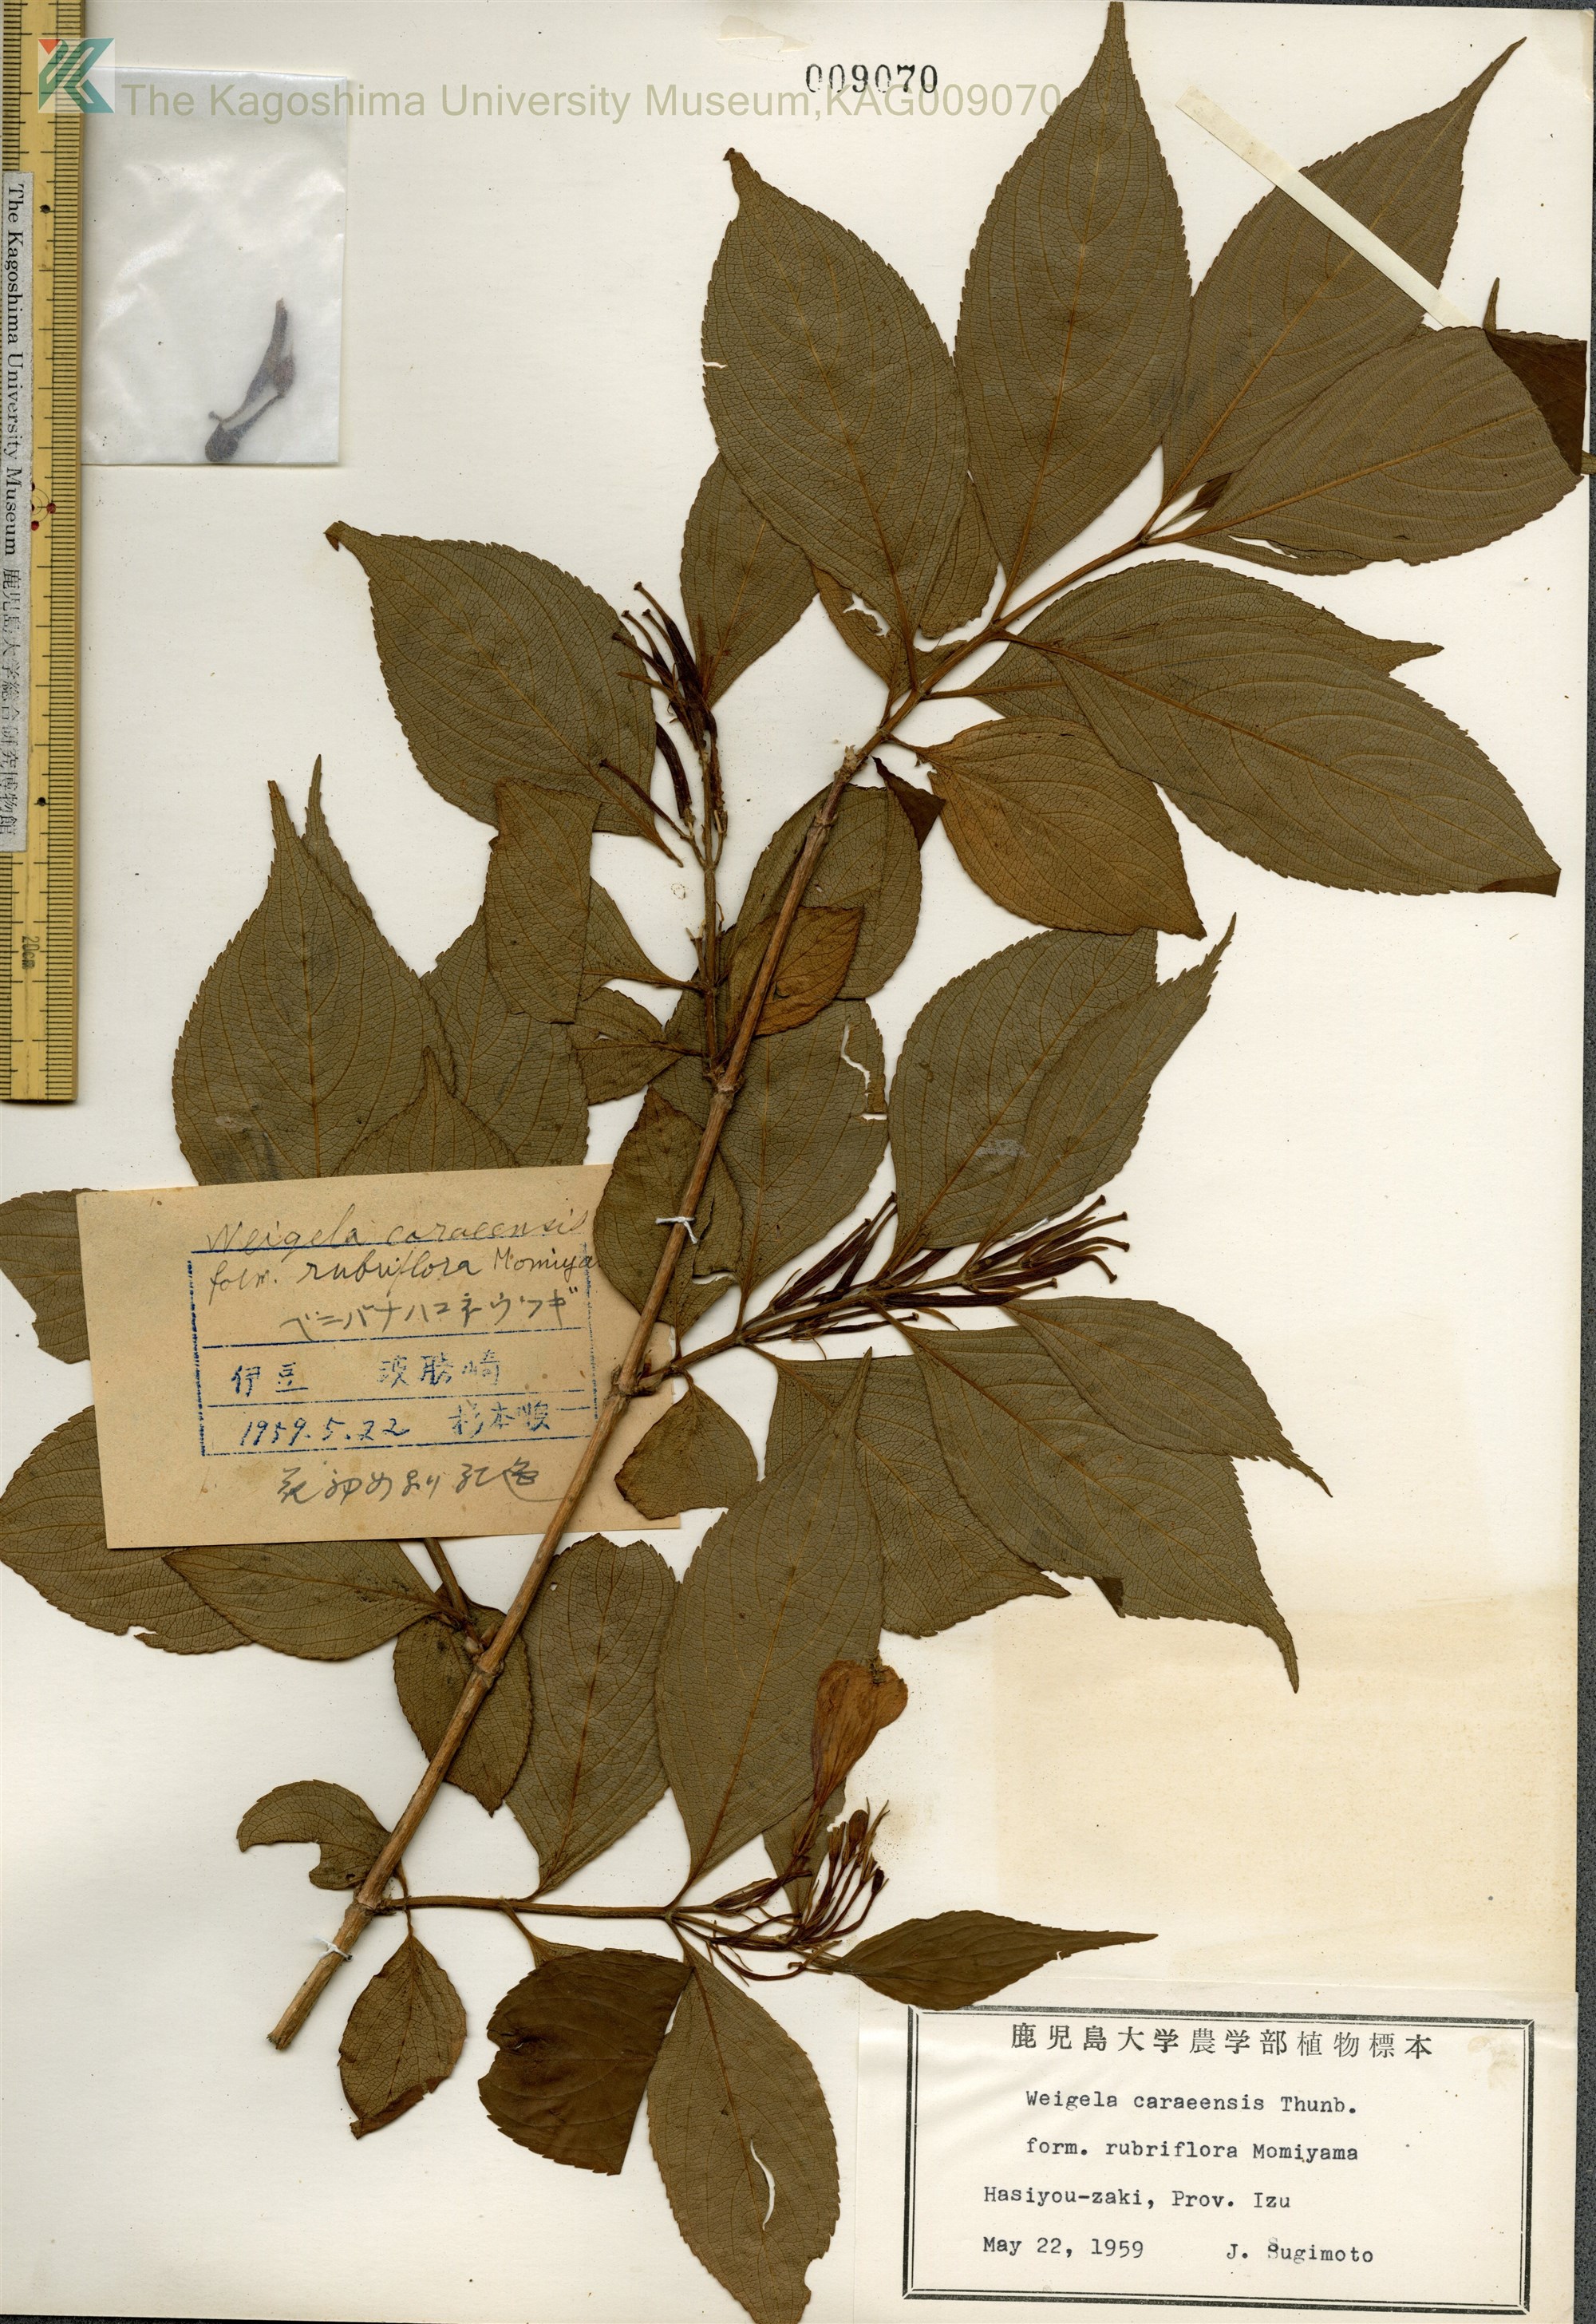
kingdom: Plantae
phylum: Tracheophyta
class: Magnoliopsida
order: Dipsacales
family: Caprifoliaceae
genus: Weigela
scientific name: Weigela
